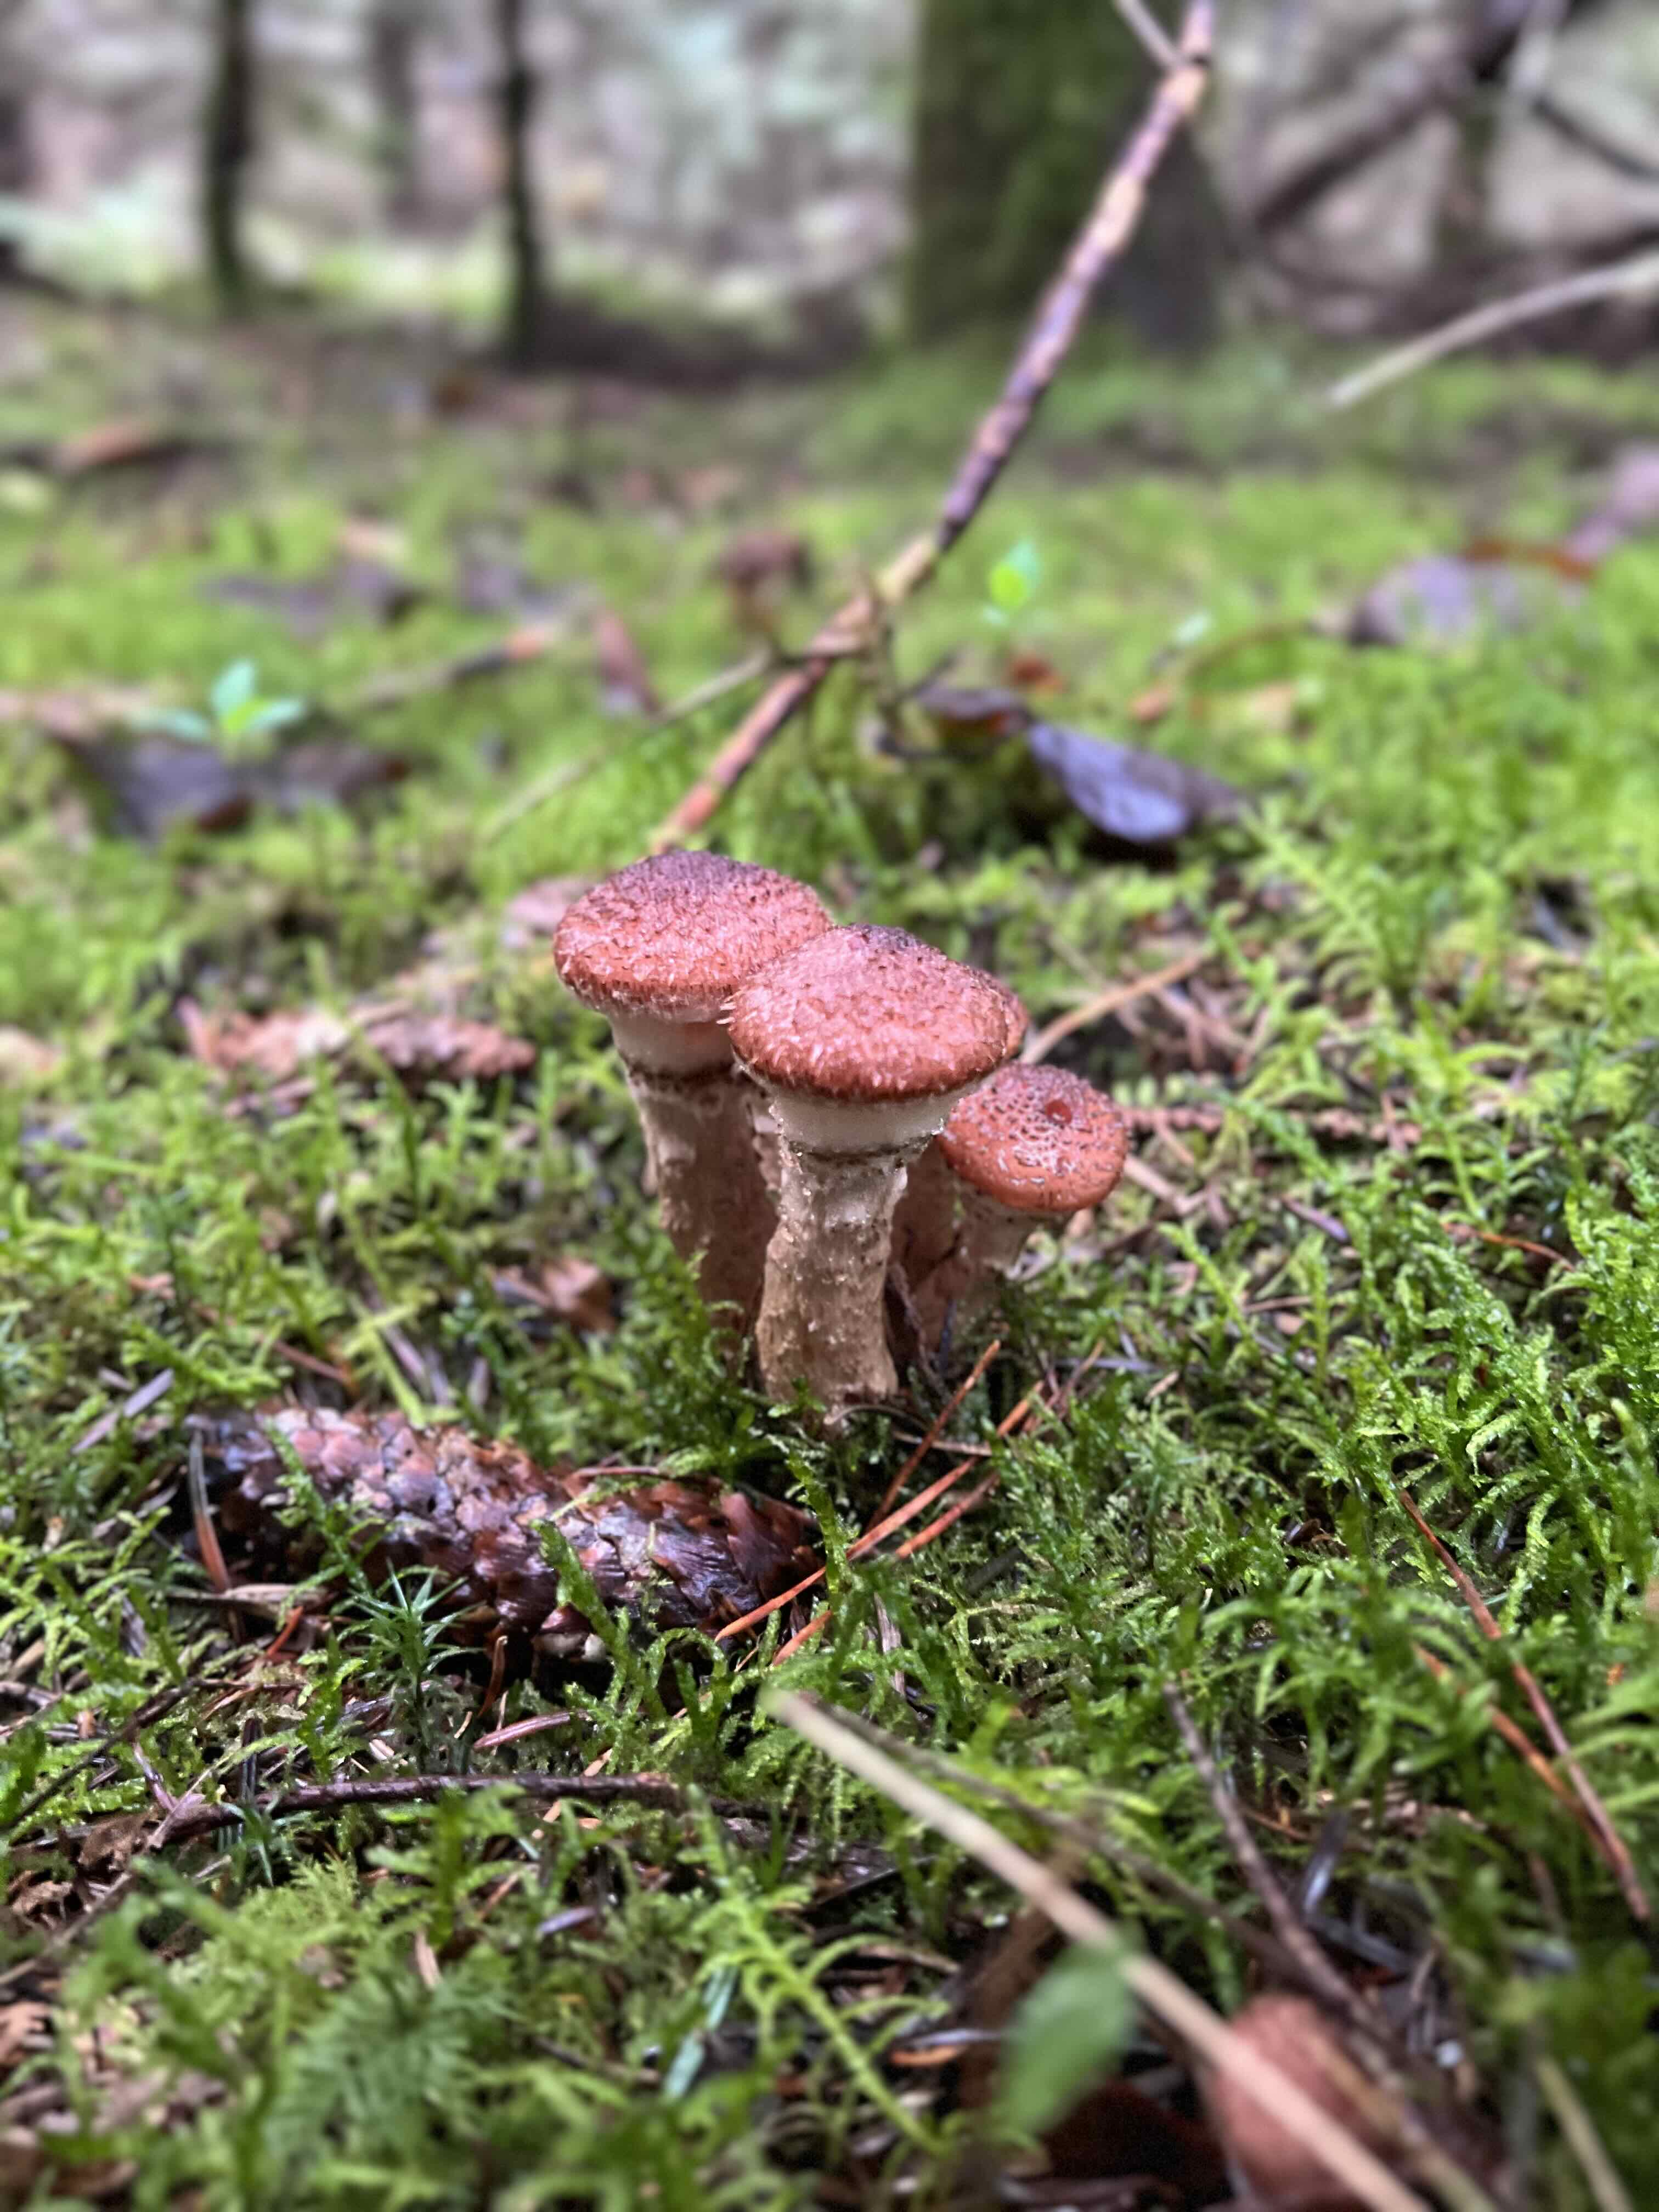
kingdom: Fungi
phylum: Basidiomycota
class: Agaricomycetes
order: Agaricales
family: Physalacriaceae
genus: Armillaria
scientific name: Armillaria ostoyae
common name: mørk honningsvamp
